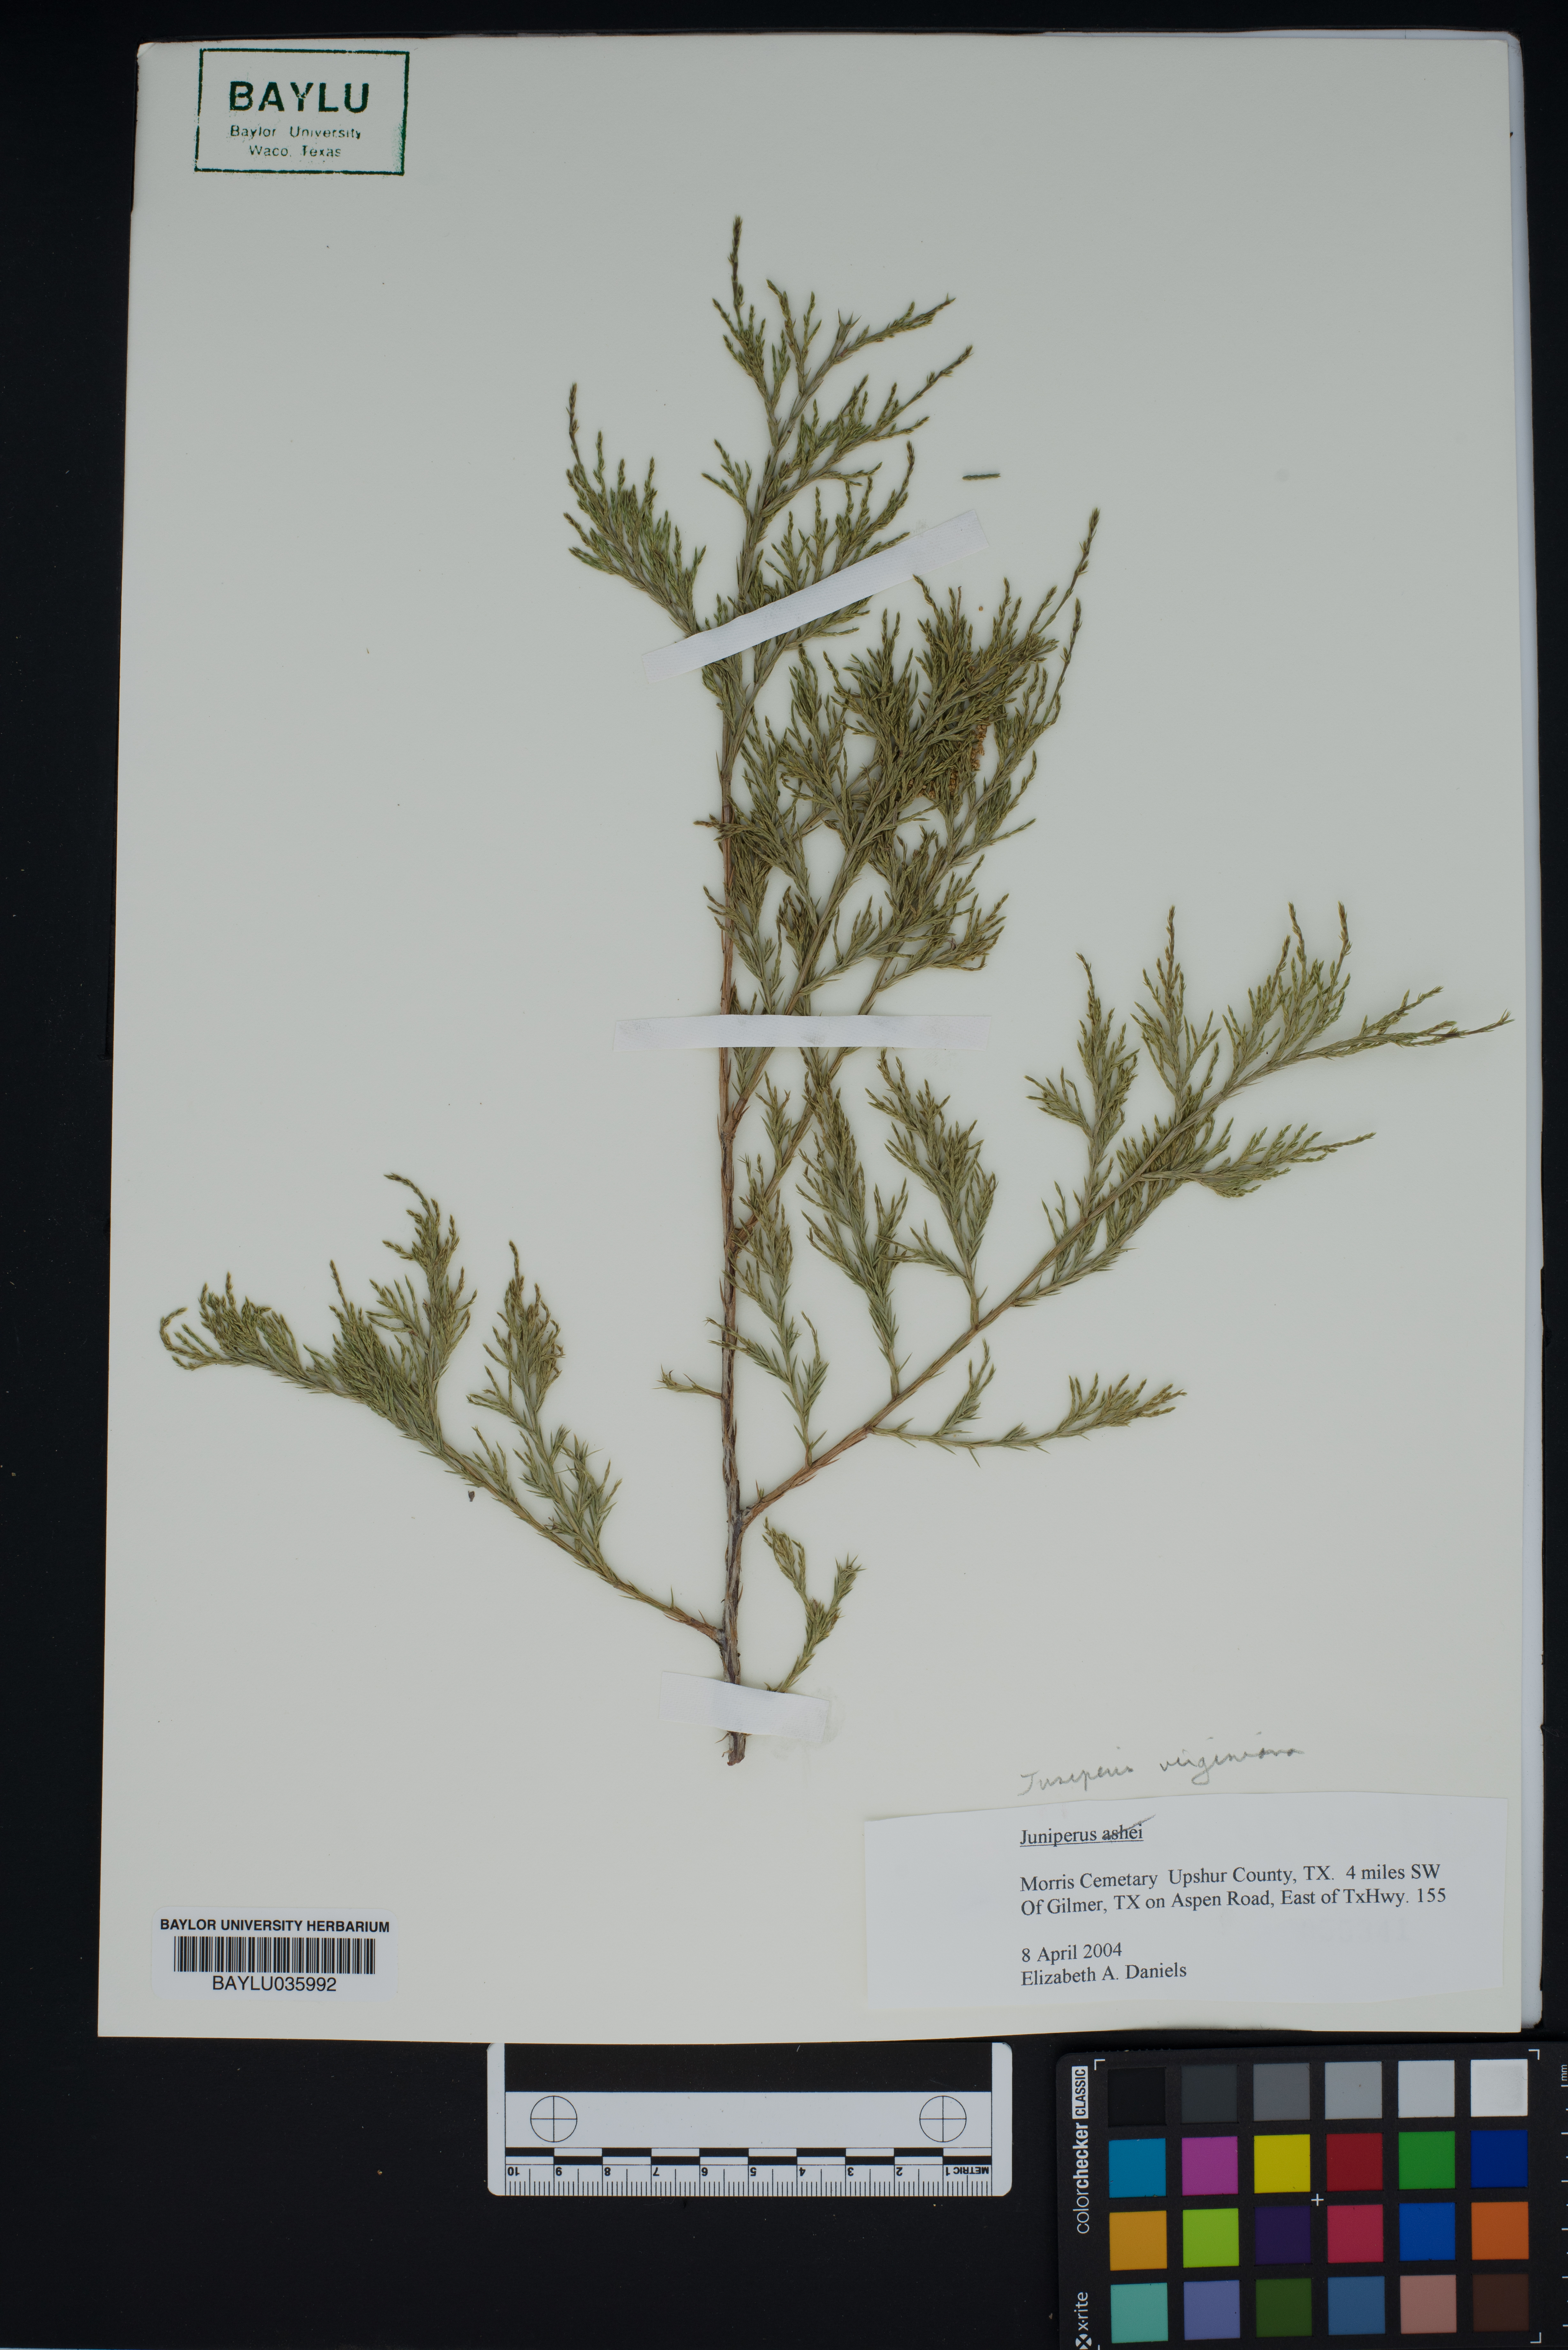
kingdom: Plantae
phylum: Tracheophyta
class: Pinopsida
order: Pinales
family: Cupressaceae
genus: Juniperus
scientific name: Juniperus virginiana
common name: Red juniper
